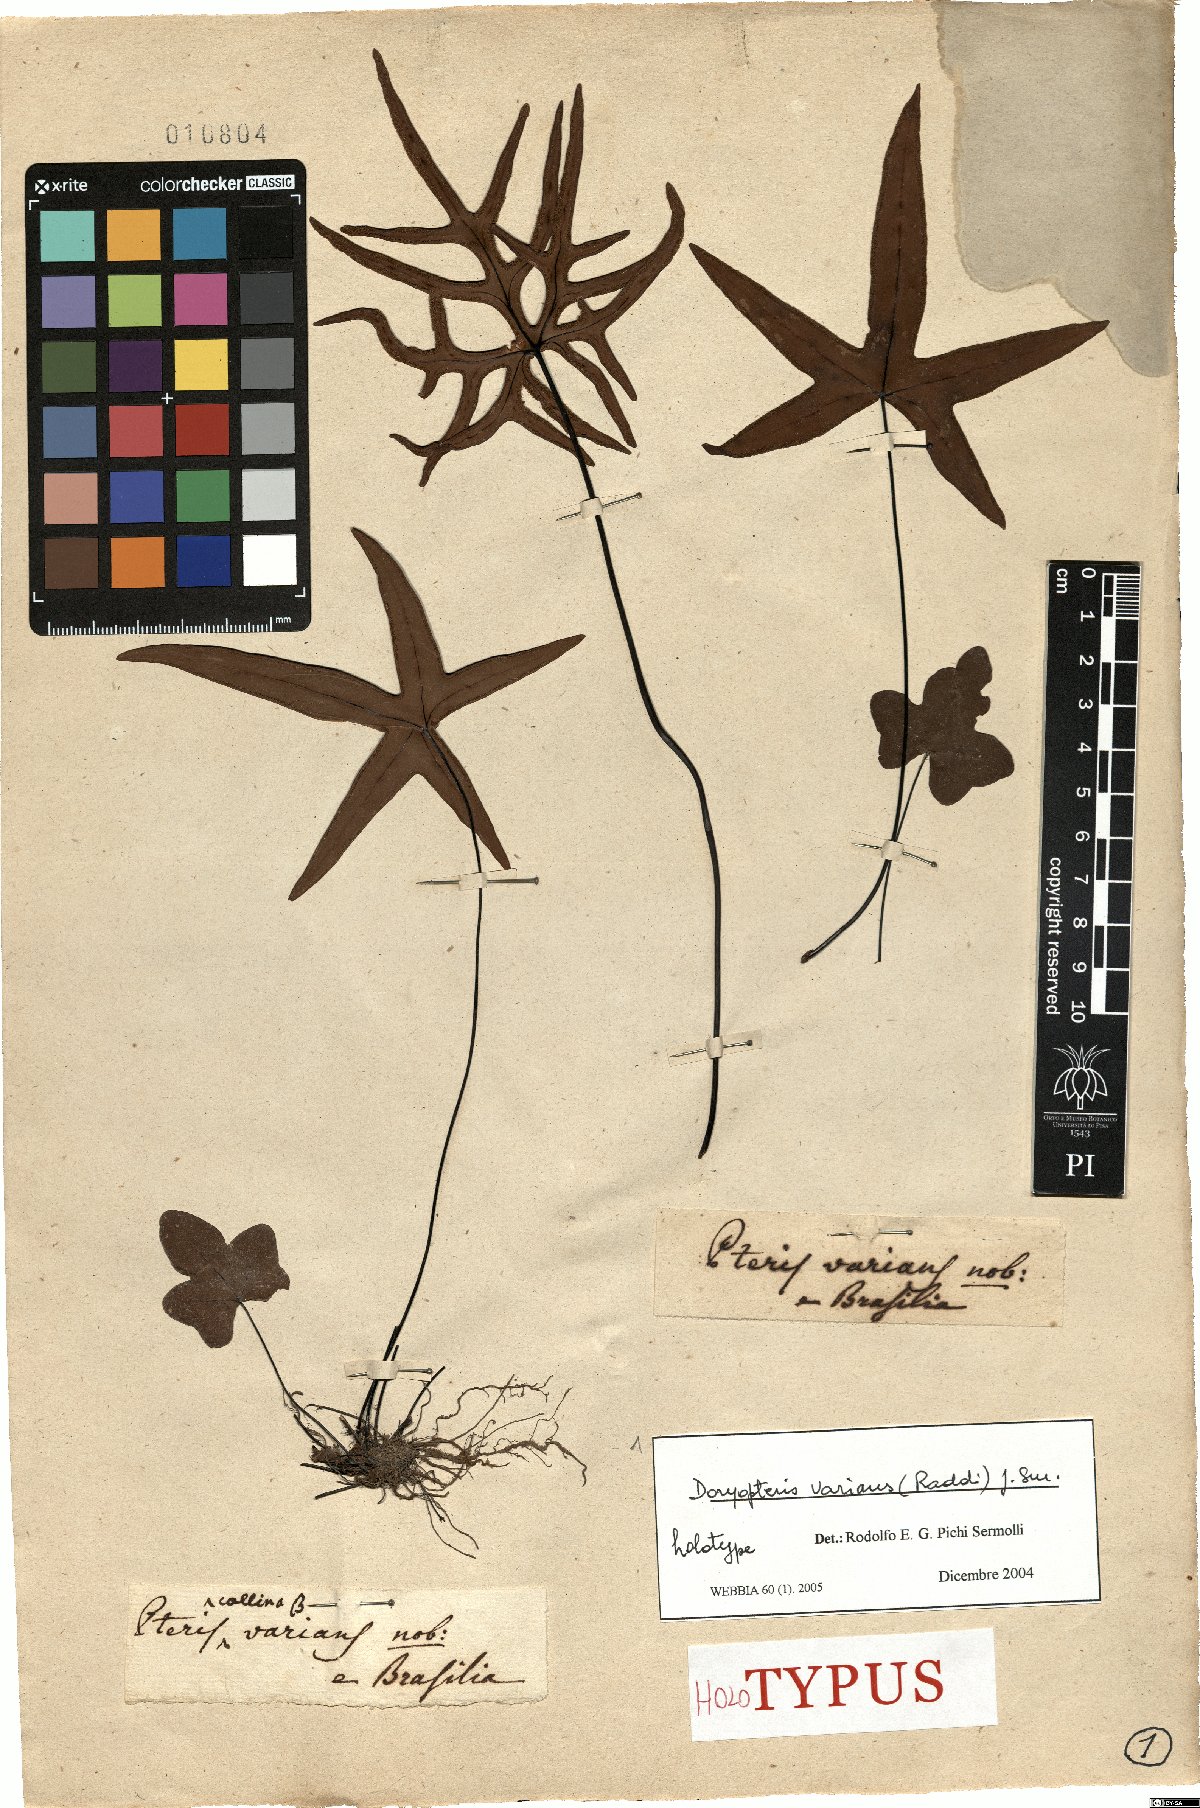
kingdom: Plantae
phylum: Tracheophyta
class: Polypodiopsida
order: Polypodiales
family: Pteridaceae
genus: Doryopteris
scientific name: Doryopteris varians
